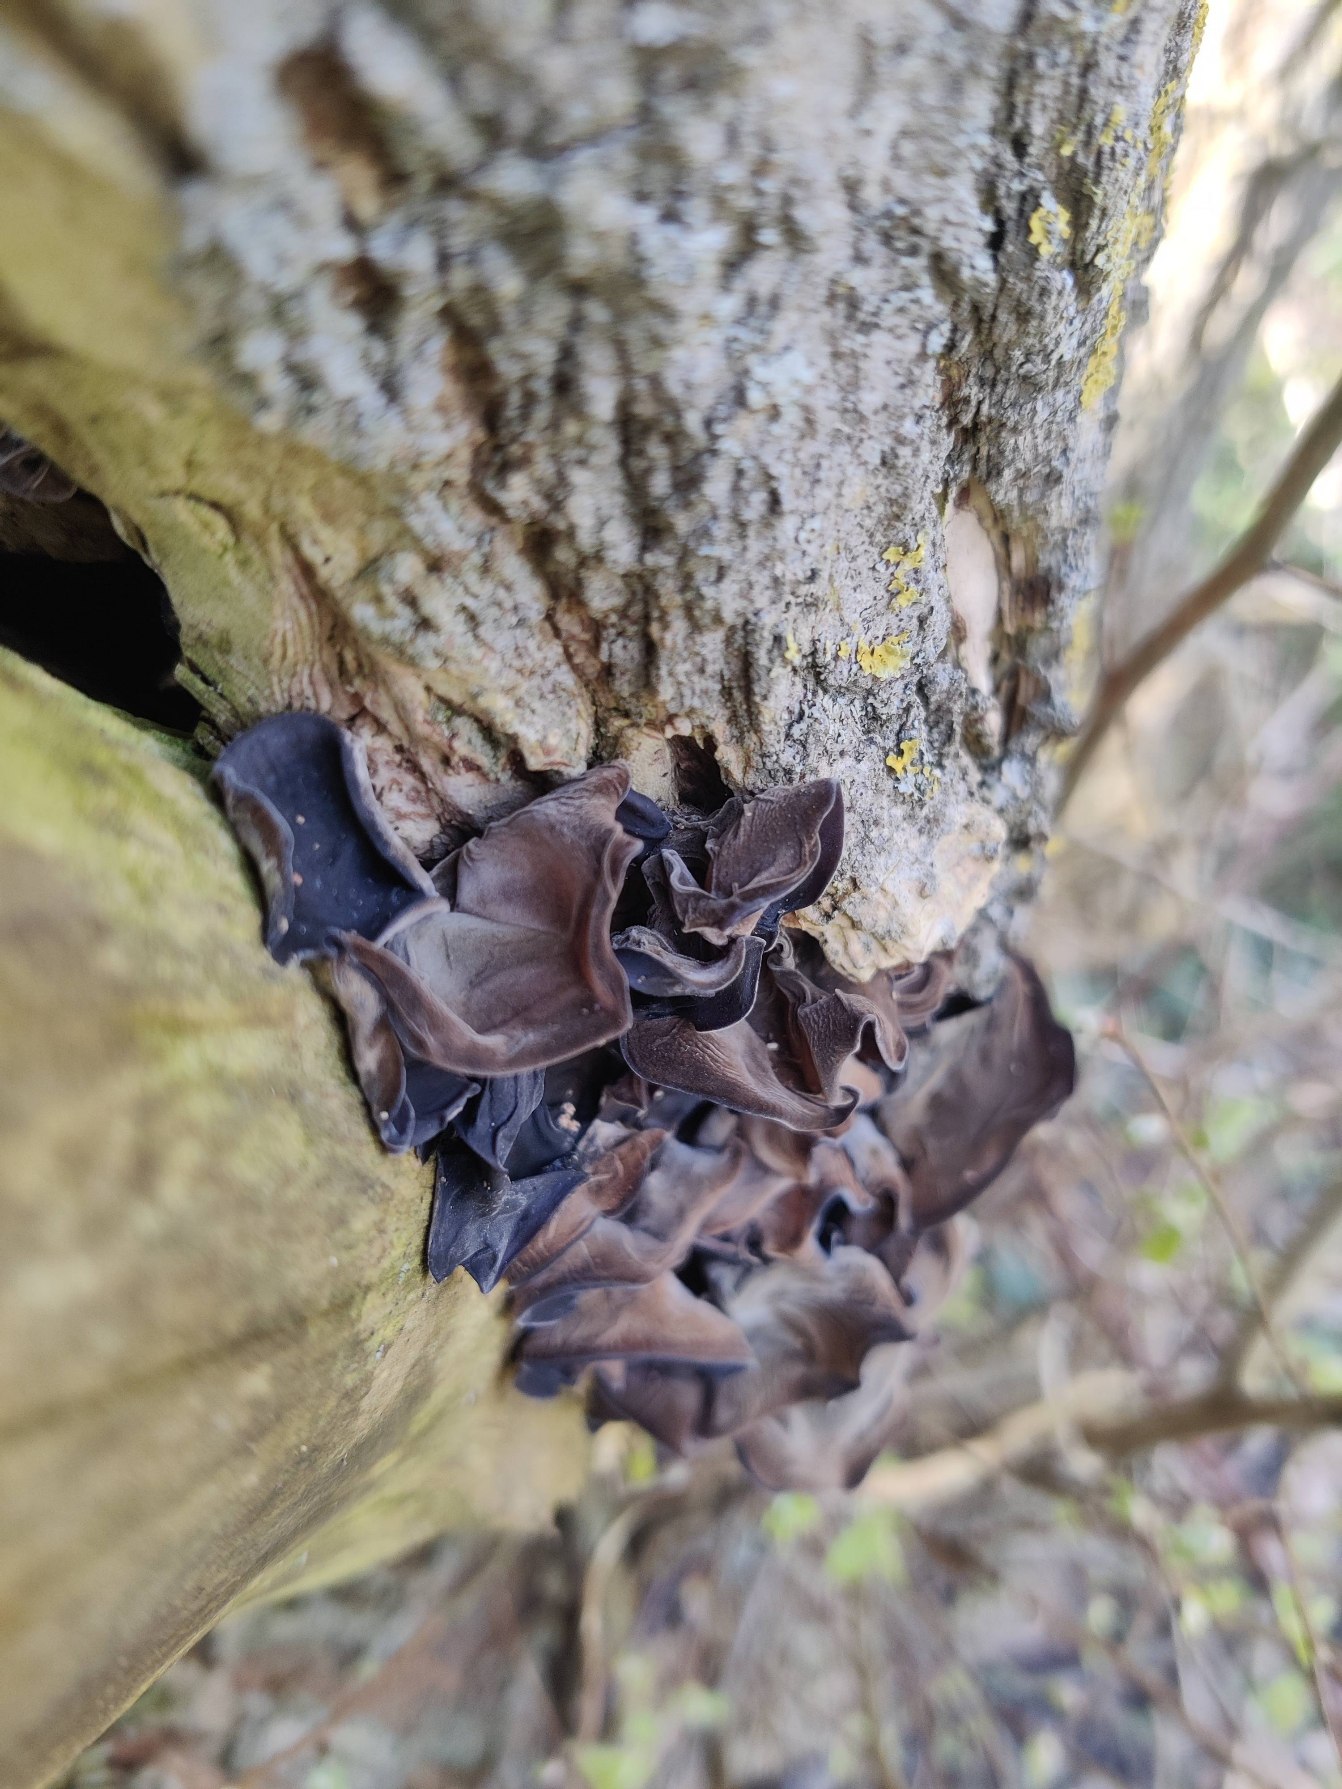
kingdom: Fungi
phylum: Basidiomycota
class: Agaricomycetes
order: Auriculariales
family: Auriculariaceae
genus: Auricularia
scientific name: Auricularia auricula-judae
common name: Almindelig judasøre
